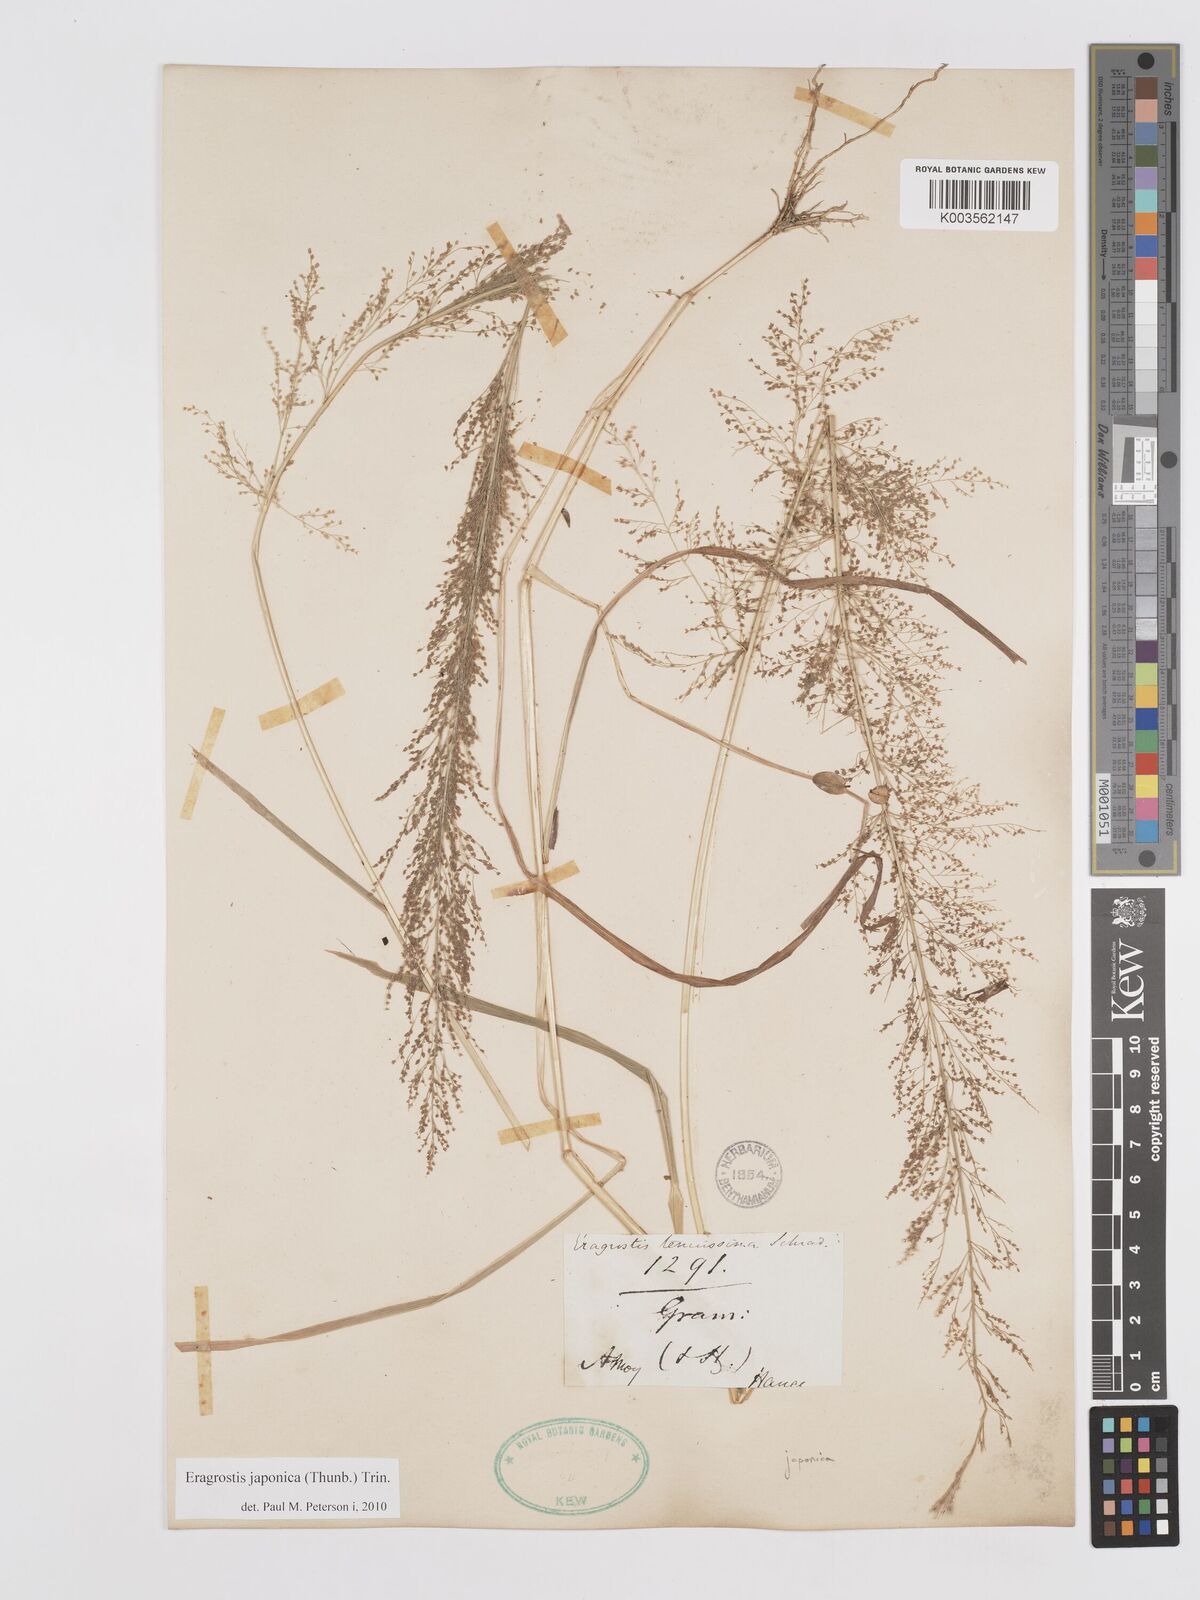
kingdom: Plantae
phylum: Tracheophyta
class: Liliopsida
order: Poales
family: Poaceae
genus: Eragrostis
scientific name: Eragrostis japonica
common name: Pond lovegrass
